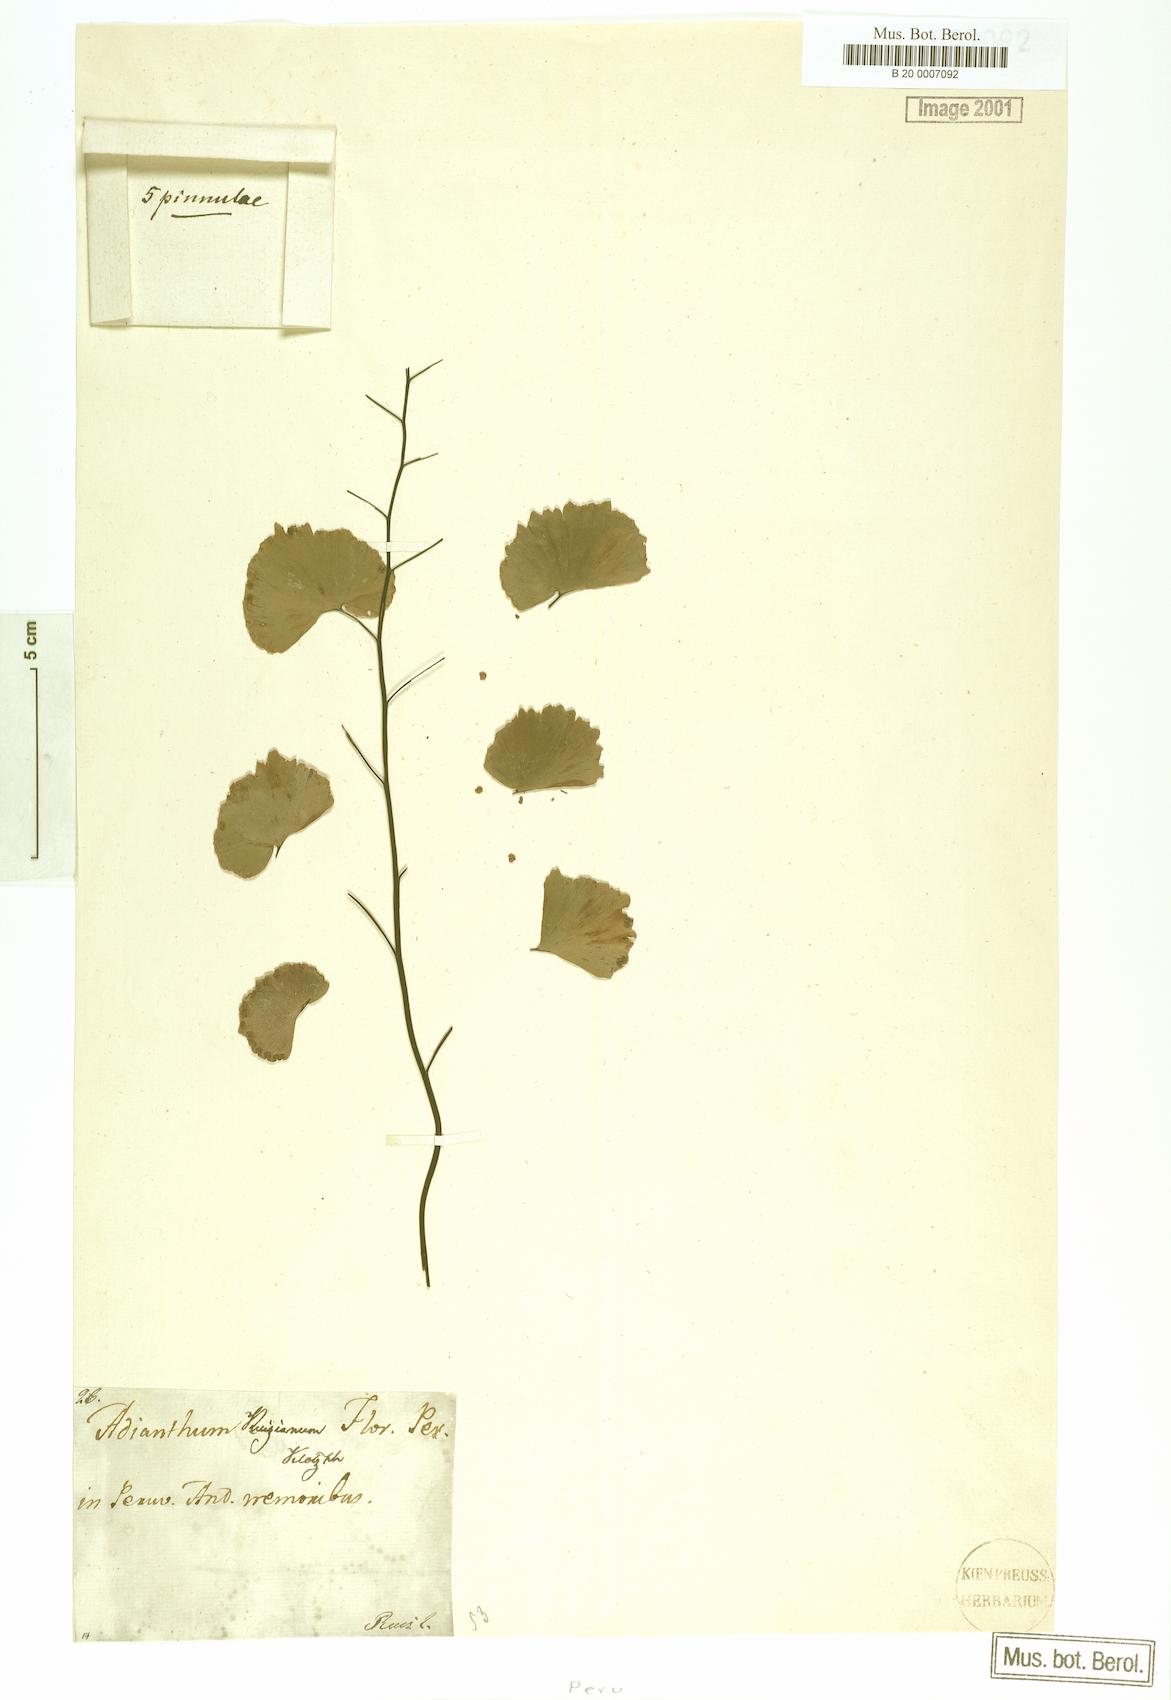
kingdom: Plantae
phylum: Tracheophyta
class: Polypodiopsida
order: Polypodiales
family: Pteridaceae
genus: Adiantum
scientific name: Adiantum ruizianum
